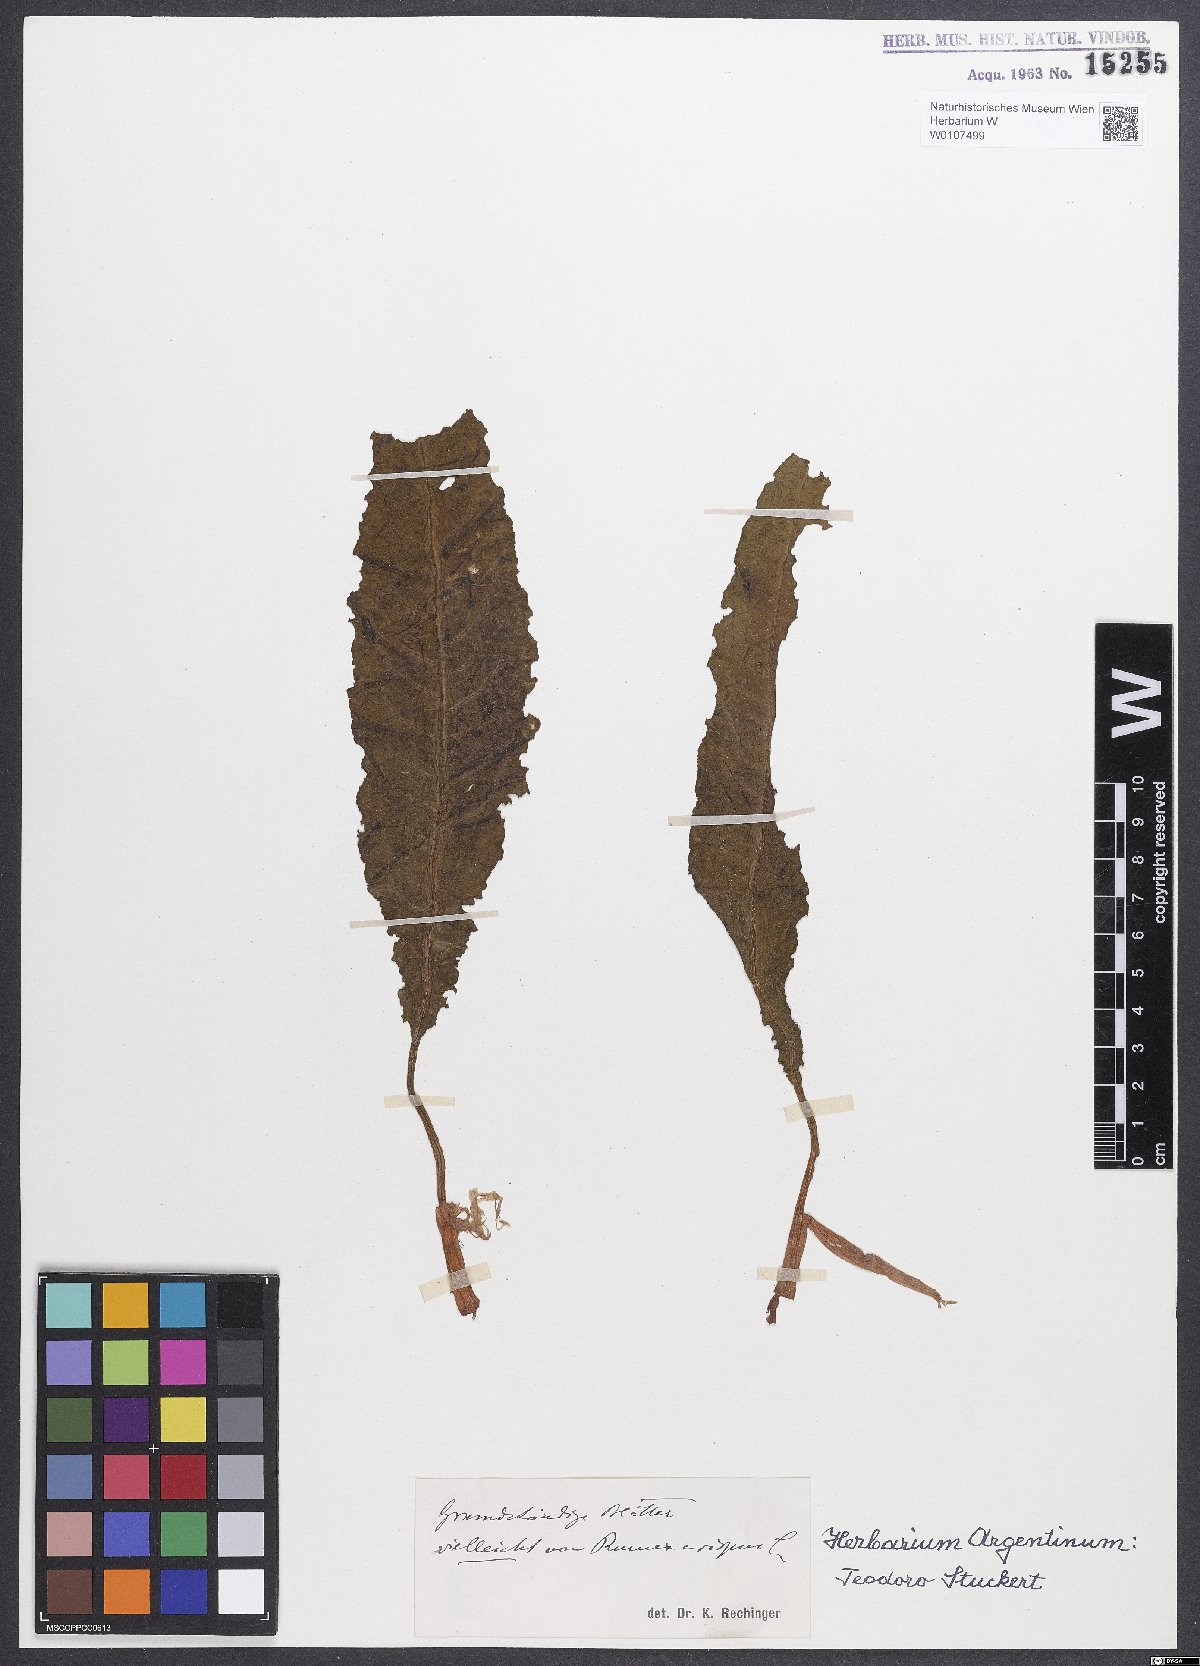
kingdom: Plantae
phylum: Tracheophyta
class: Magnoliopsida
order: Caryophyllales
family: Polygonaceae
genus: Rumex
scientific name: Rumex crispus
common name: Curled dock
